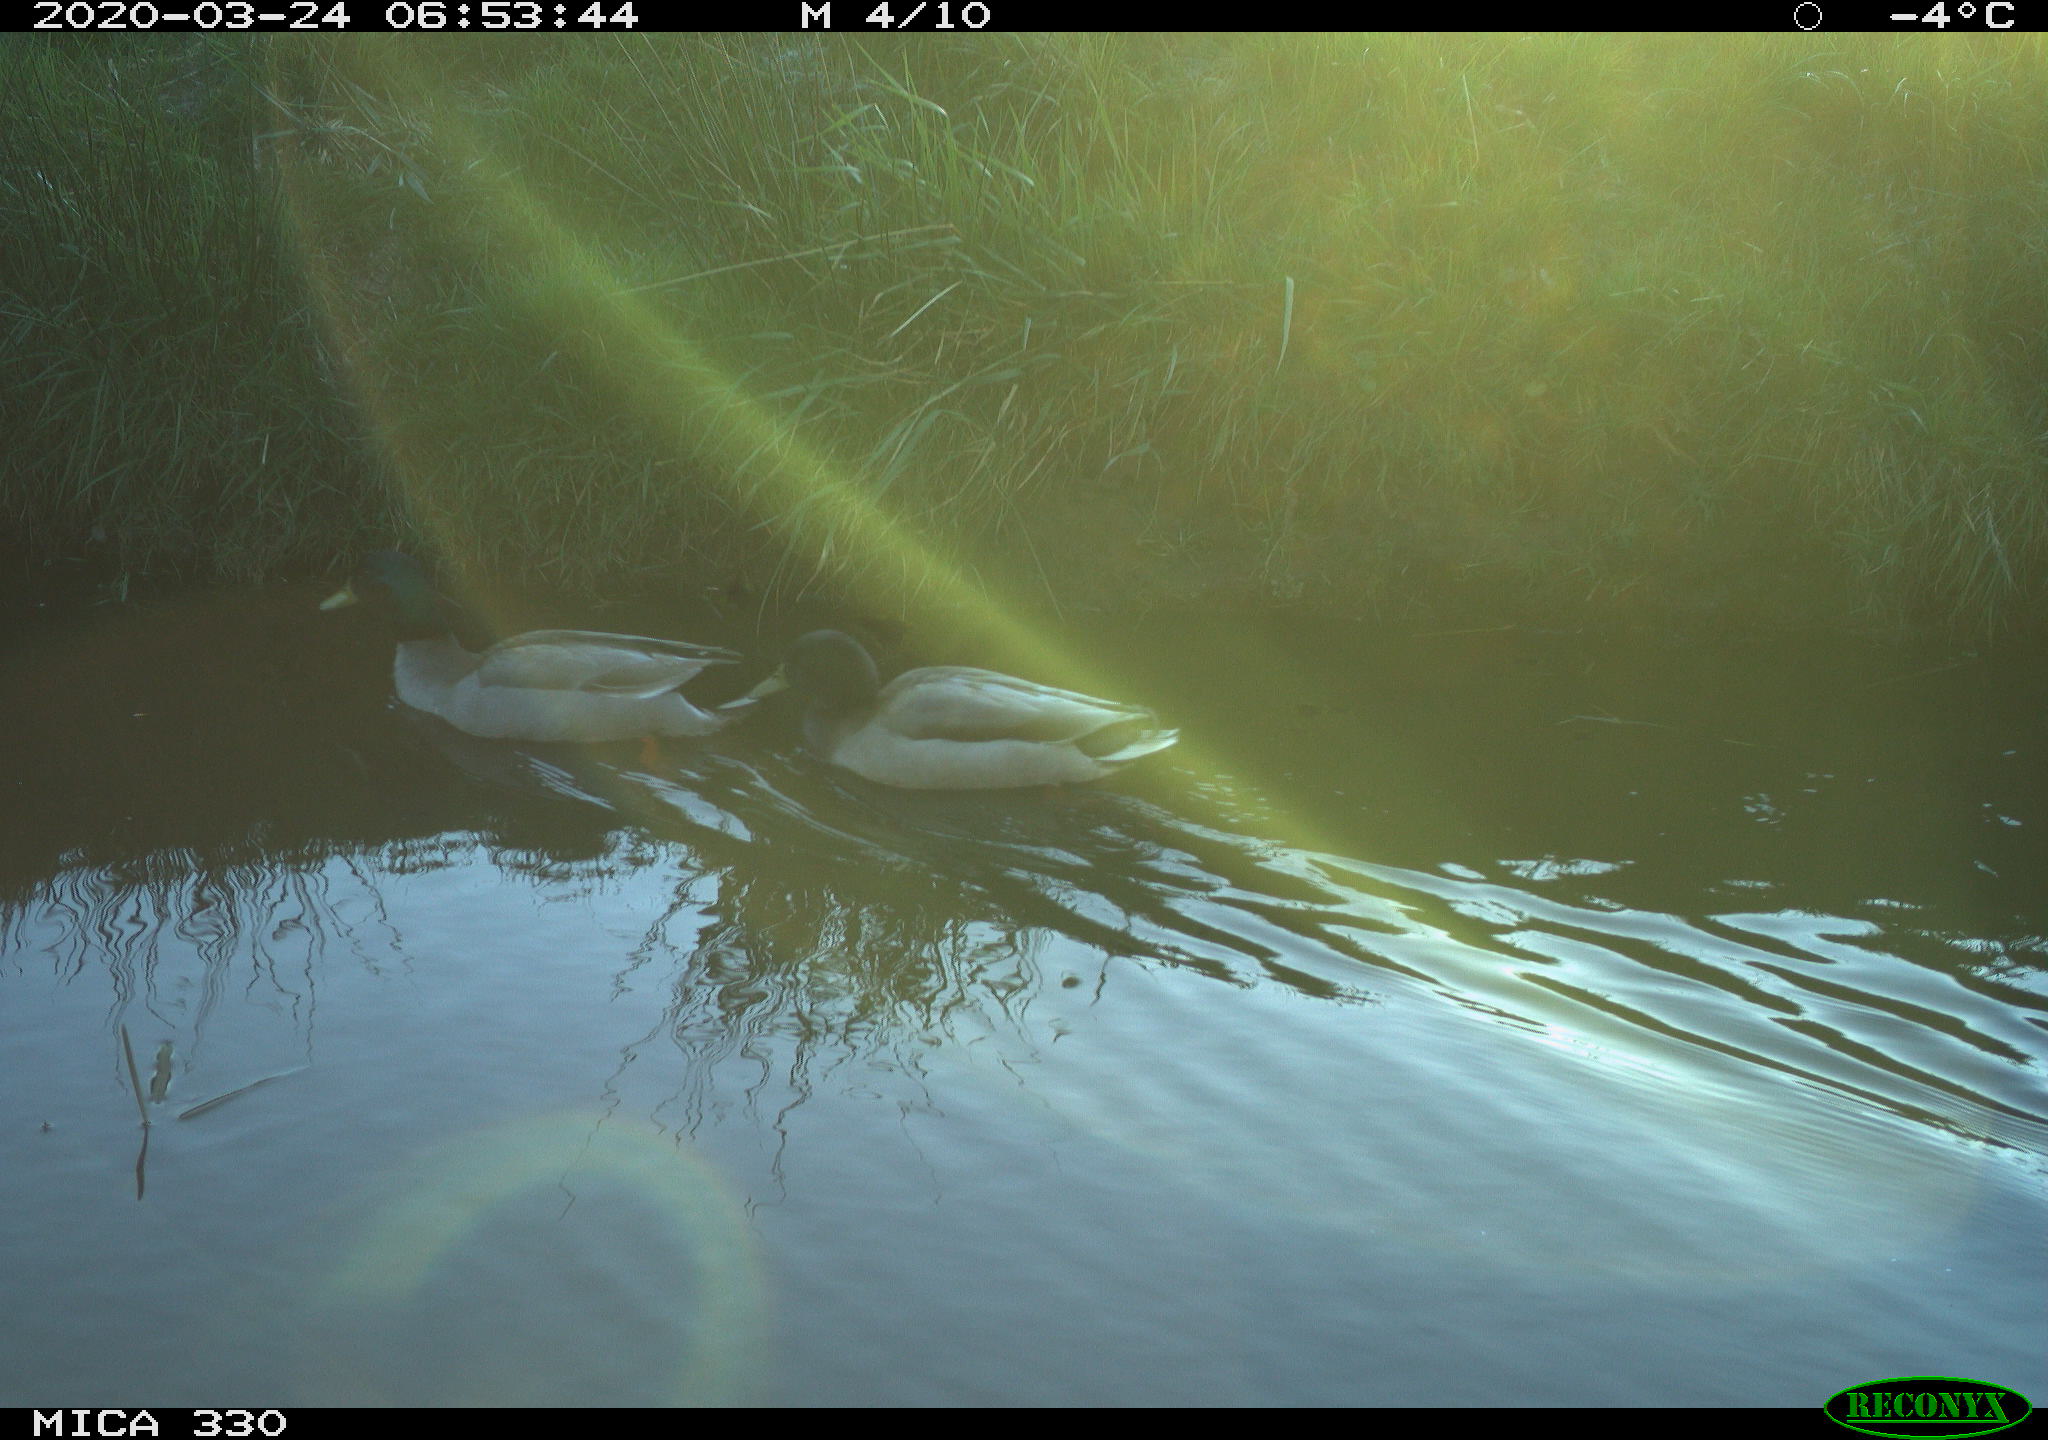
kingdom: Animalia
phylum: Chordata
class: Aves
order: Anseriformes
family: Anatidae
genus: Anas
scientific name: Anas platyrhynchos
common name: Mallard
